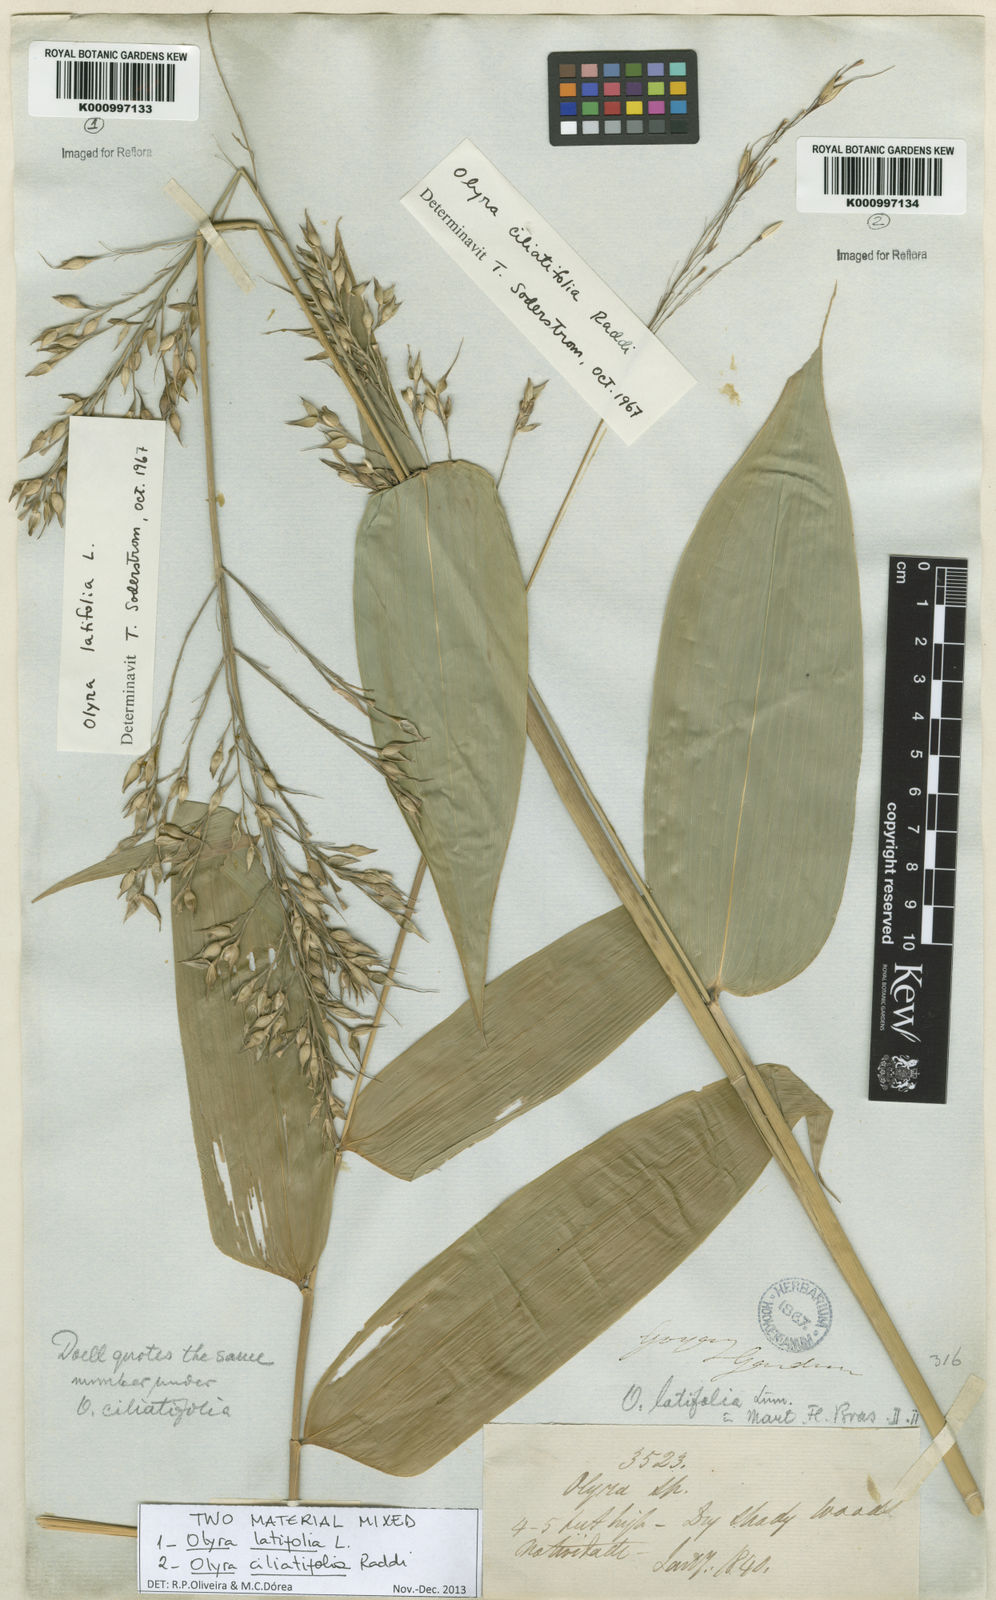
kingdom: Plantae
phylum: Tracheophyta
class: Liliopsida
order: Poales
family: Poaceae
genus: Olyra
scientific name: Olyra latifolia
